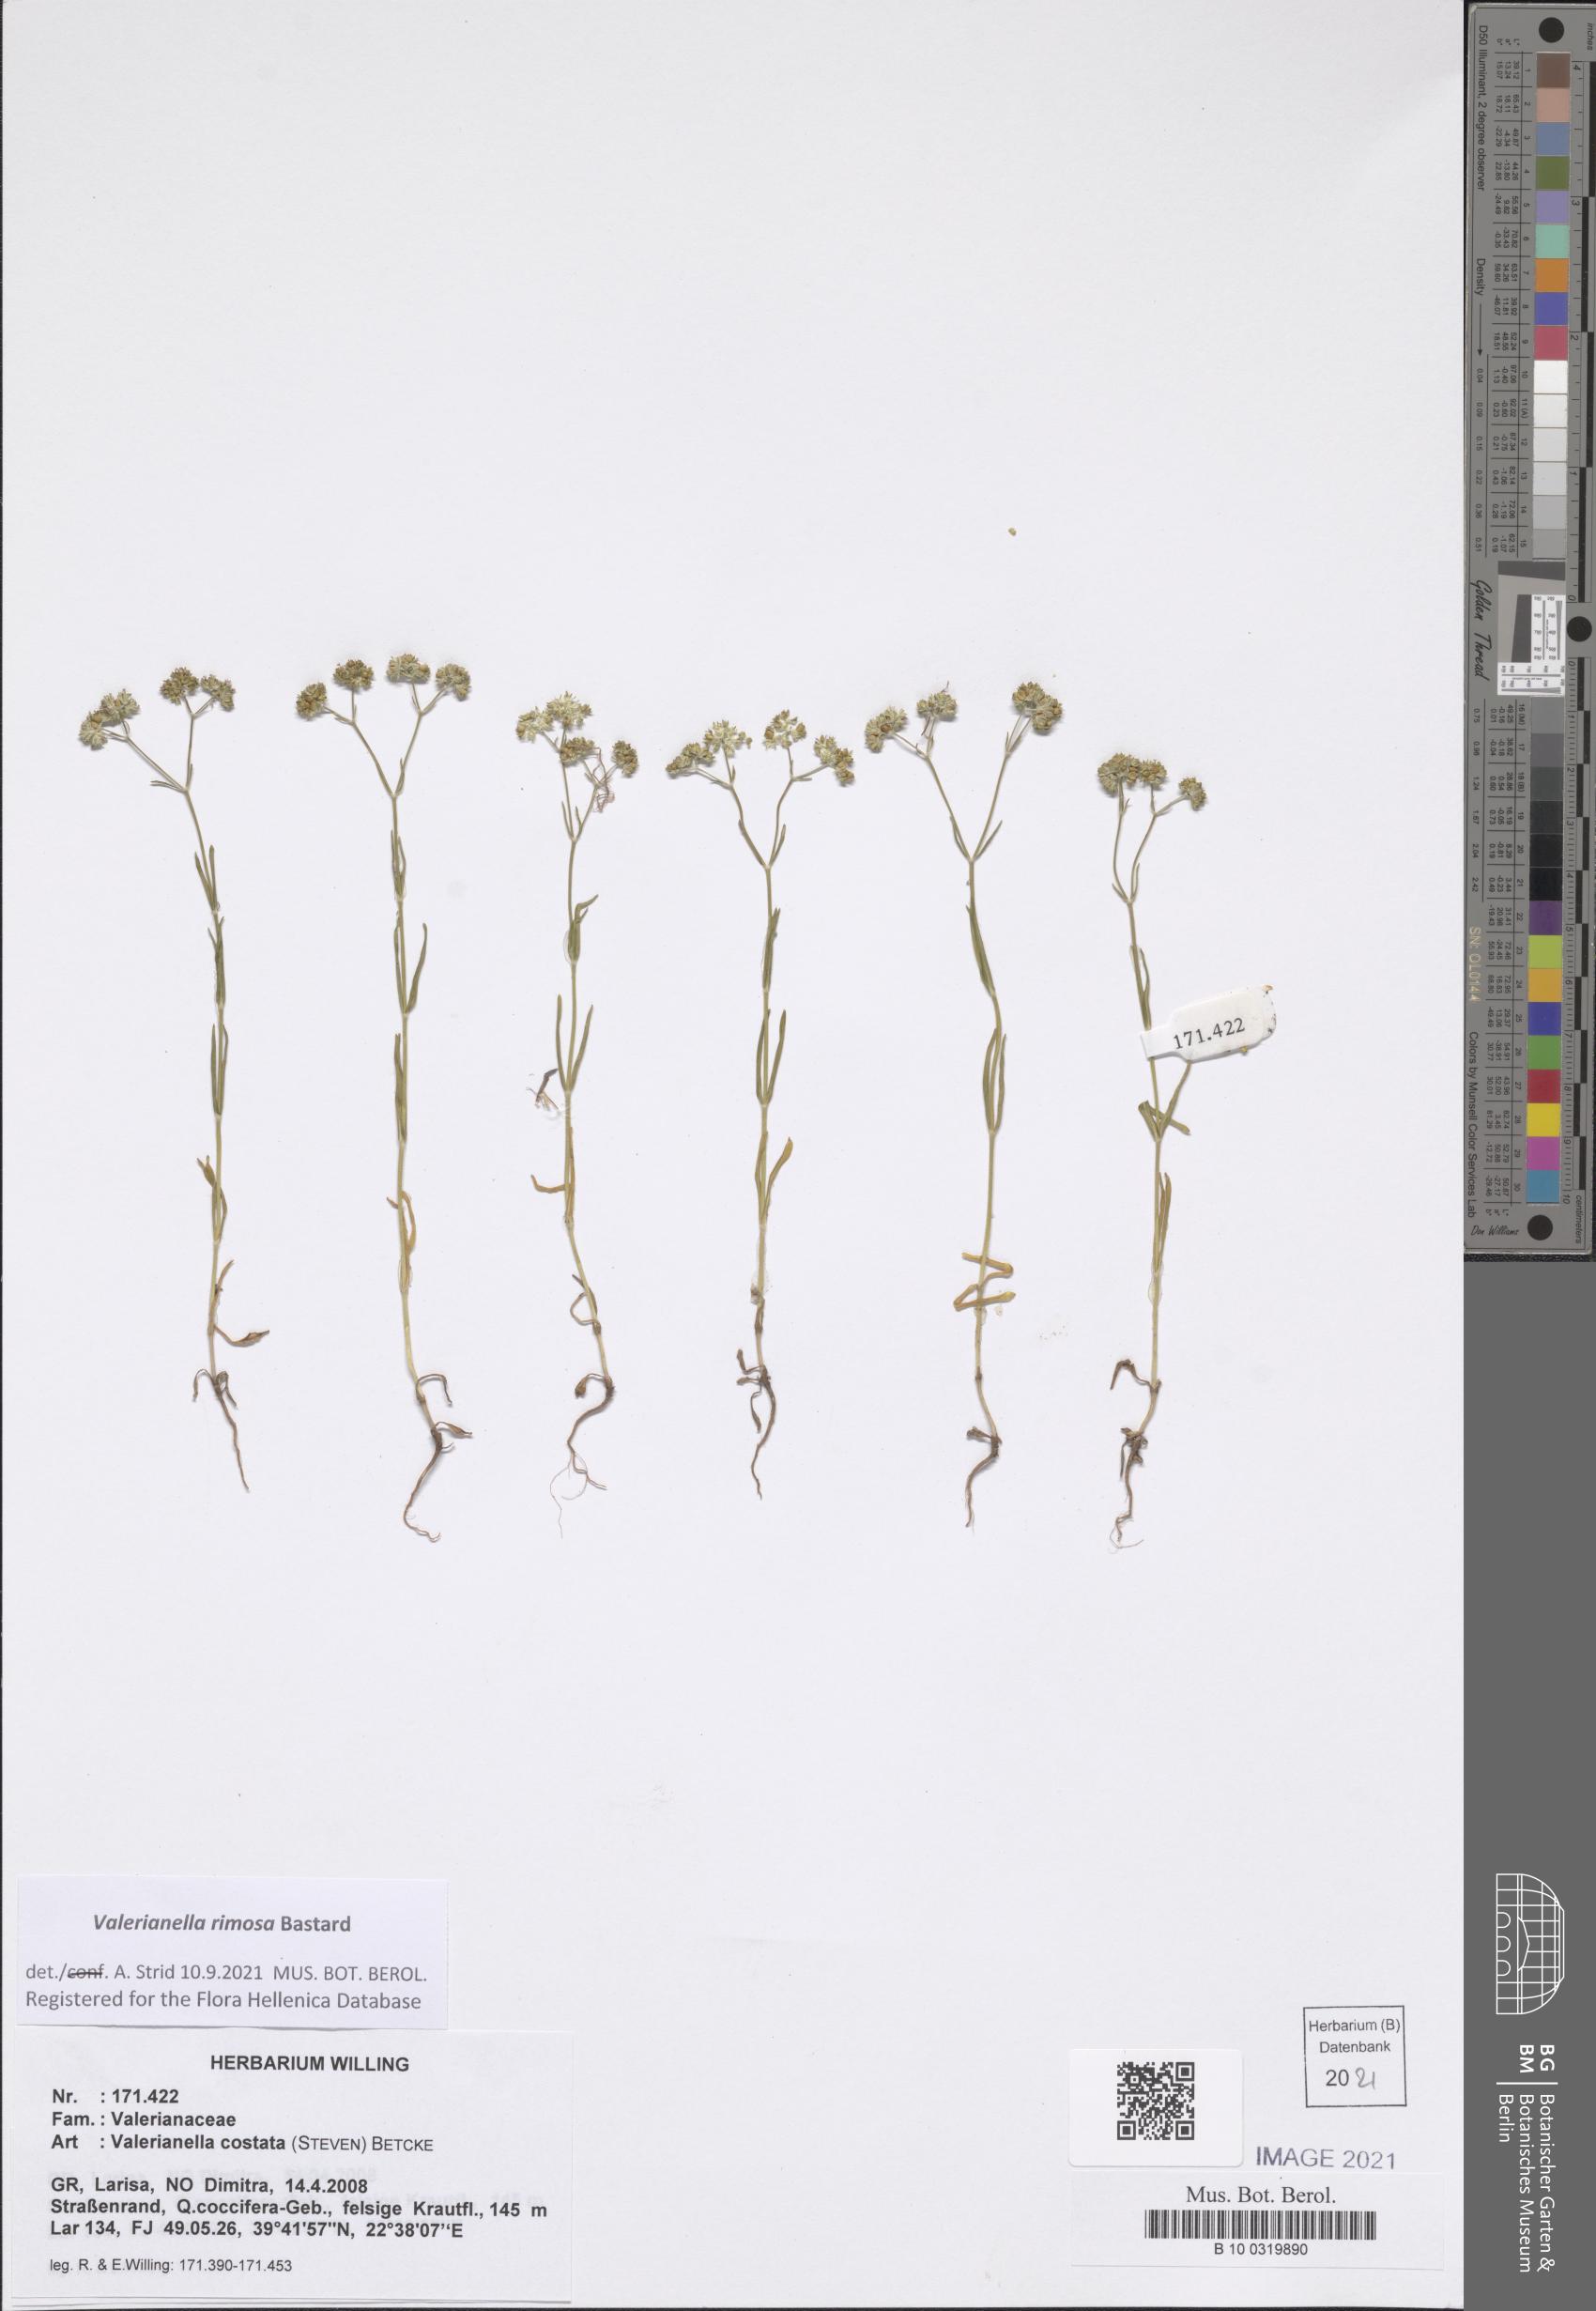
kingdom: Plantae
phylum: Tracheophyta
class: Magnoliopsida
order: Dipsacales
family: Caprifoliaceae
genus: Valerianella
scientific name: Valerianella rimosa
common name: Broad-fruited cornsalad
